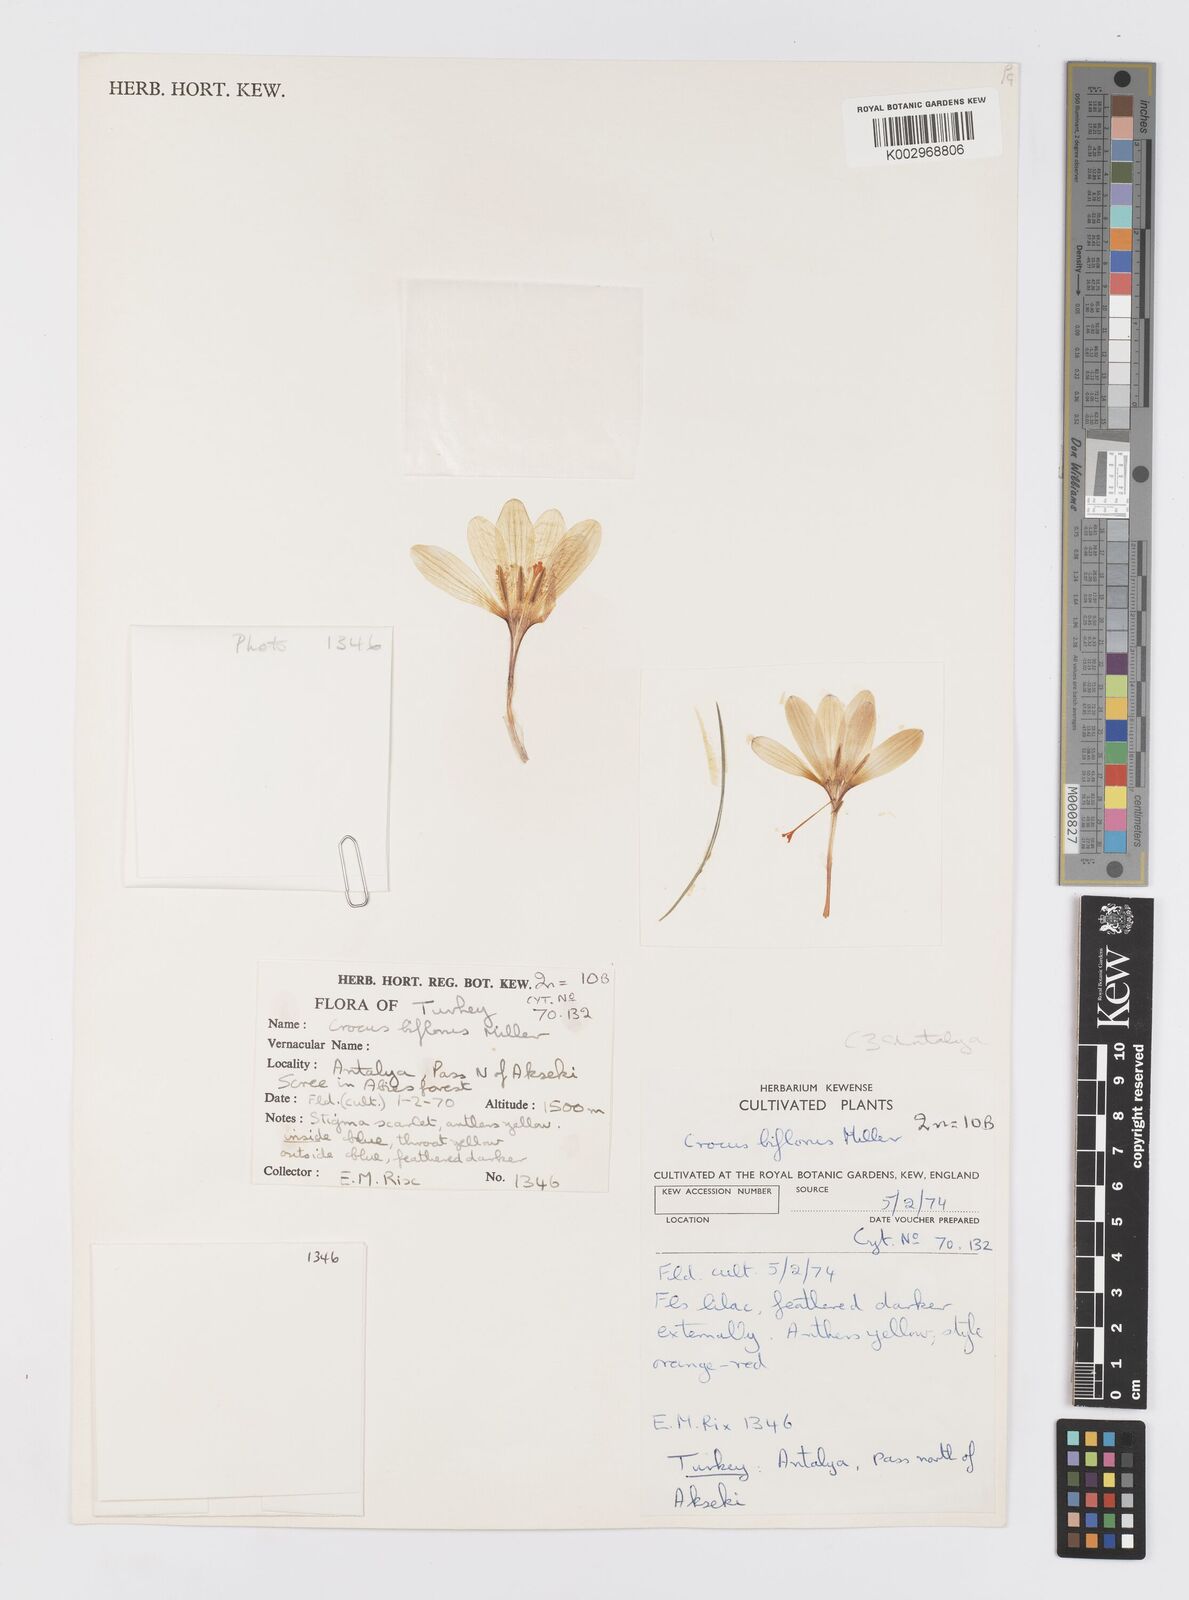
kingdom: Plantae
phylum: Tracheophyta
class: Liliopsida
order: Asparagales
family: Iridaceae
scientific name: Iridaceae
